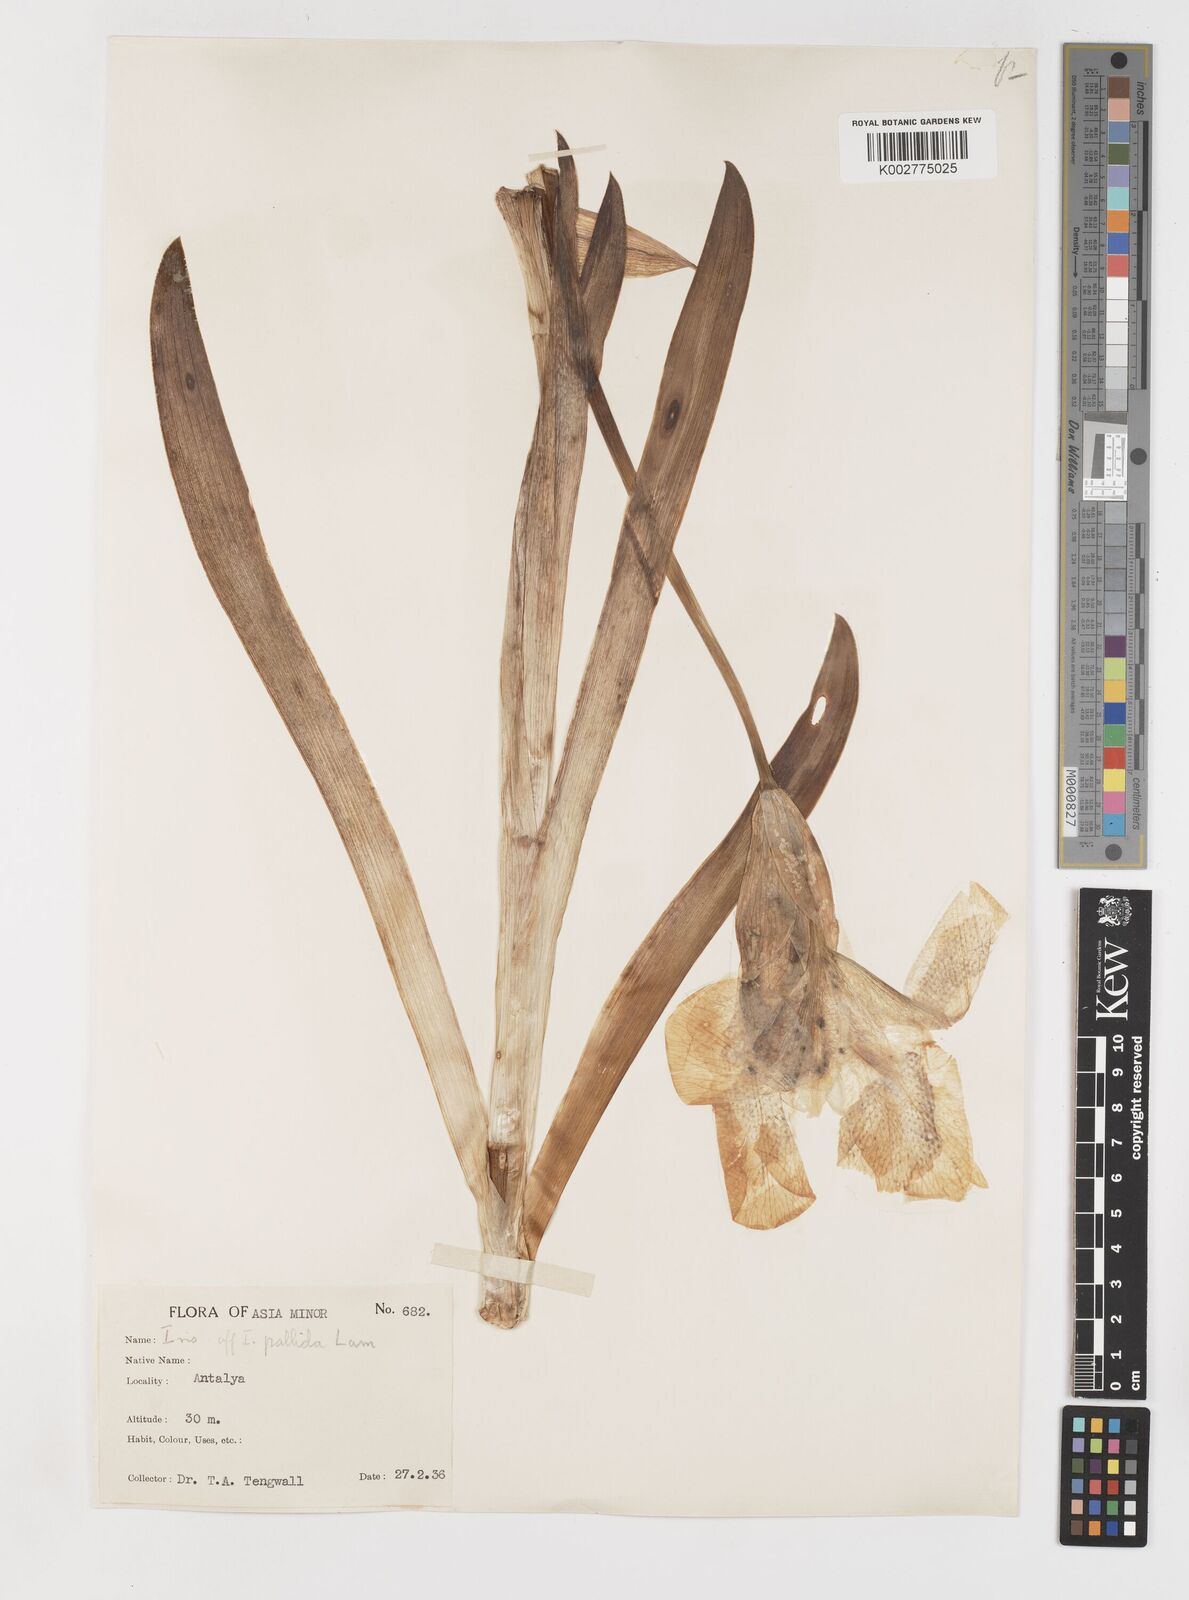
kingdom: Plantae
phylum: Tracheophyta
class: Liliopsida
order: Asparagales
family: Iridaceae
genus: Iris
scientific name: Iris florentina
